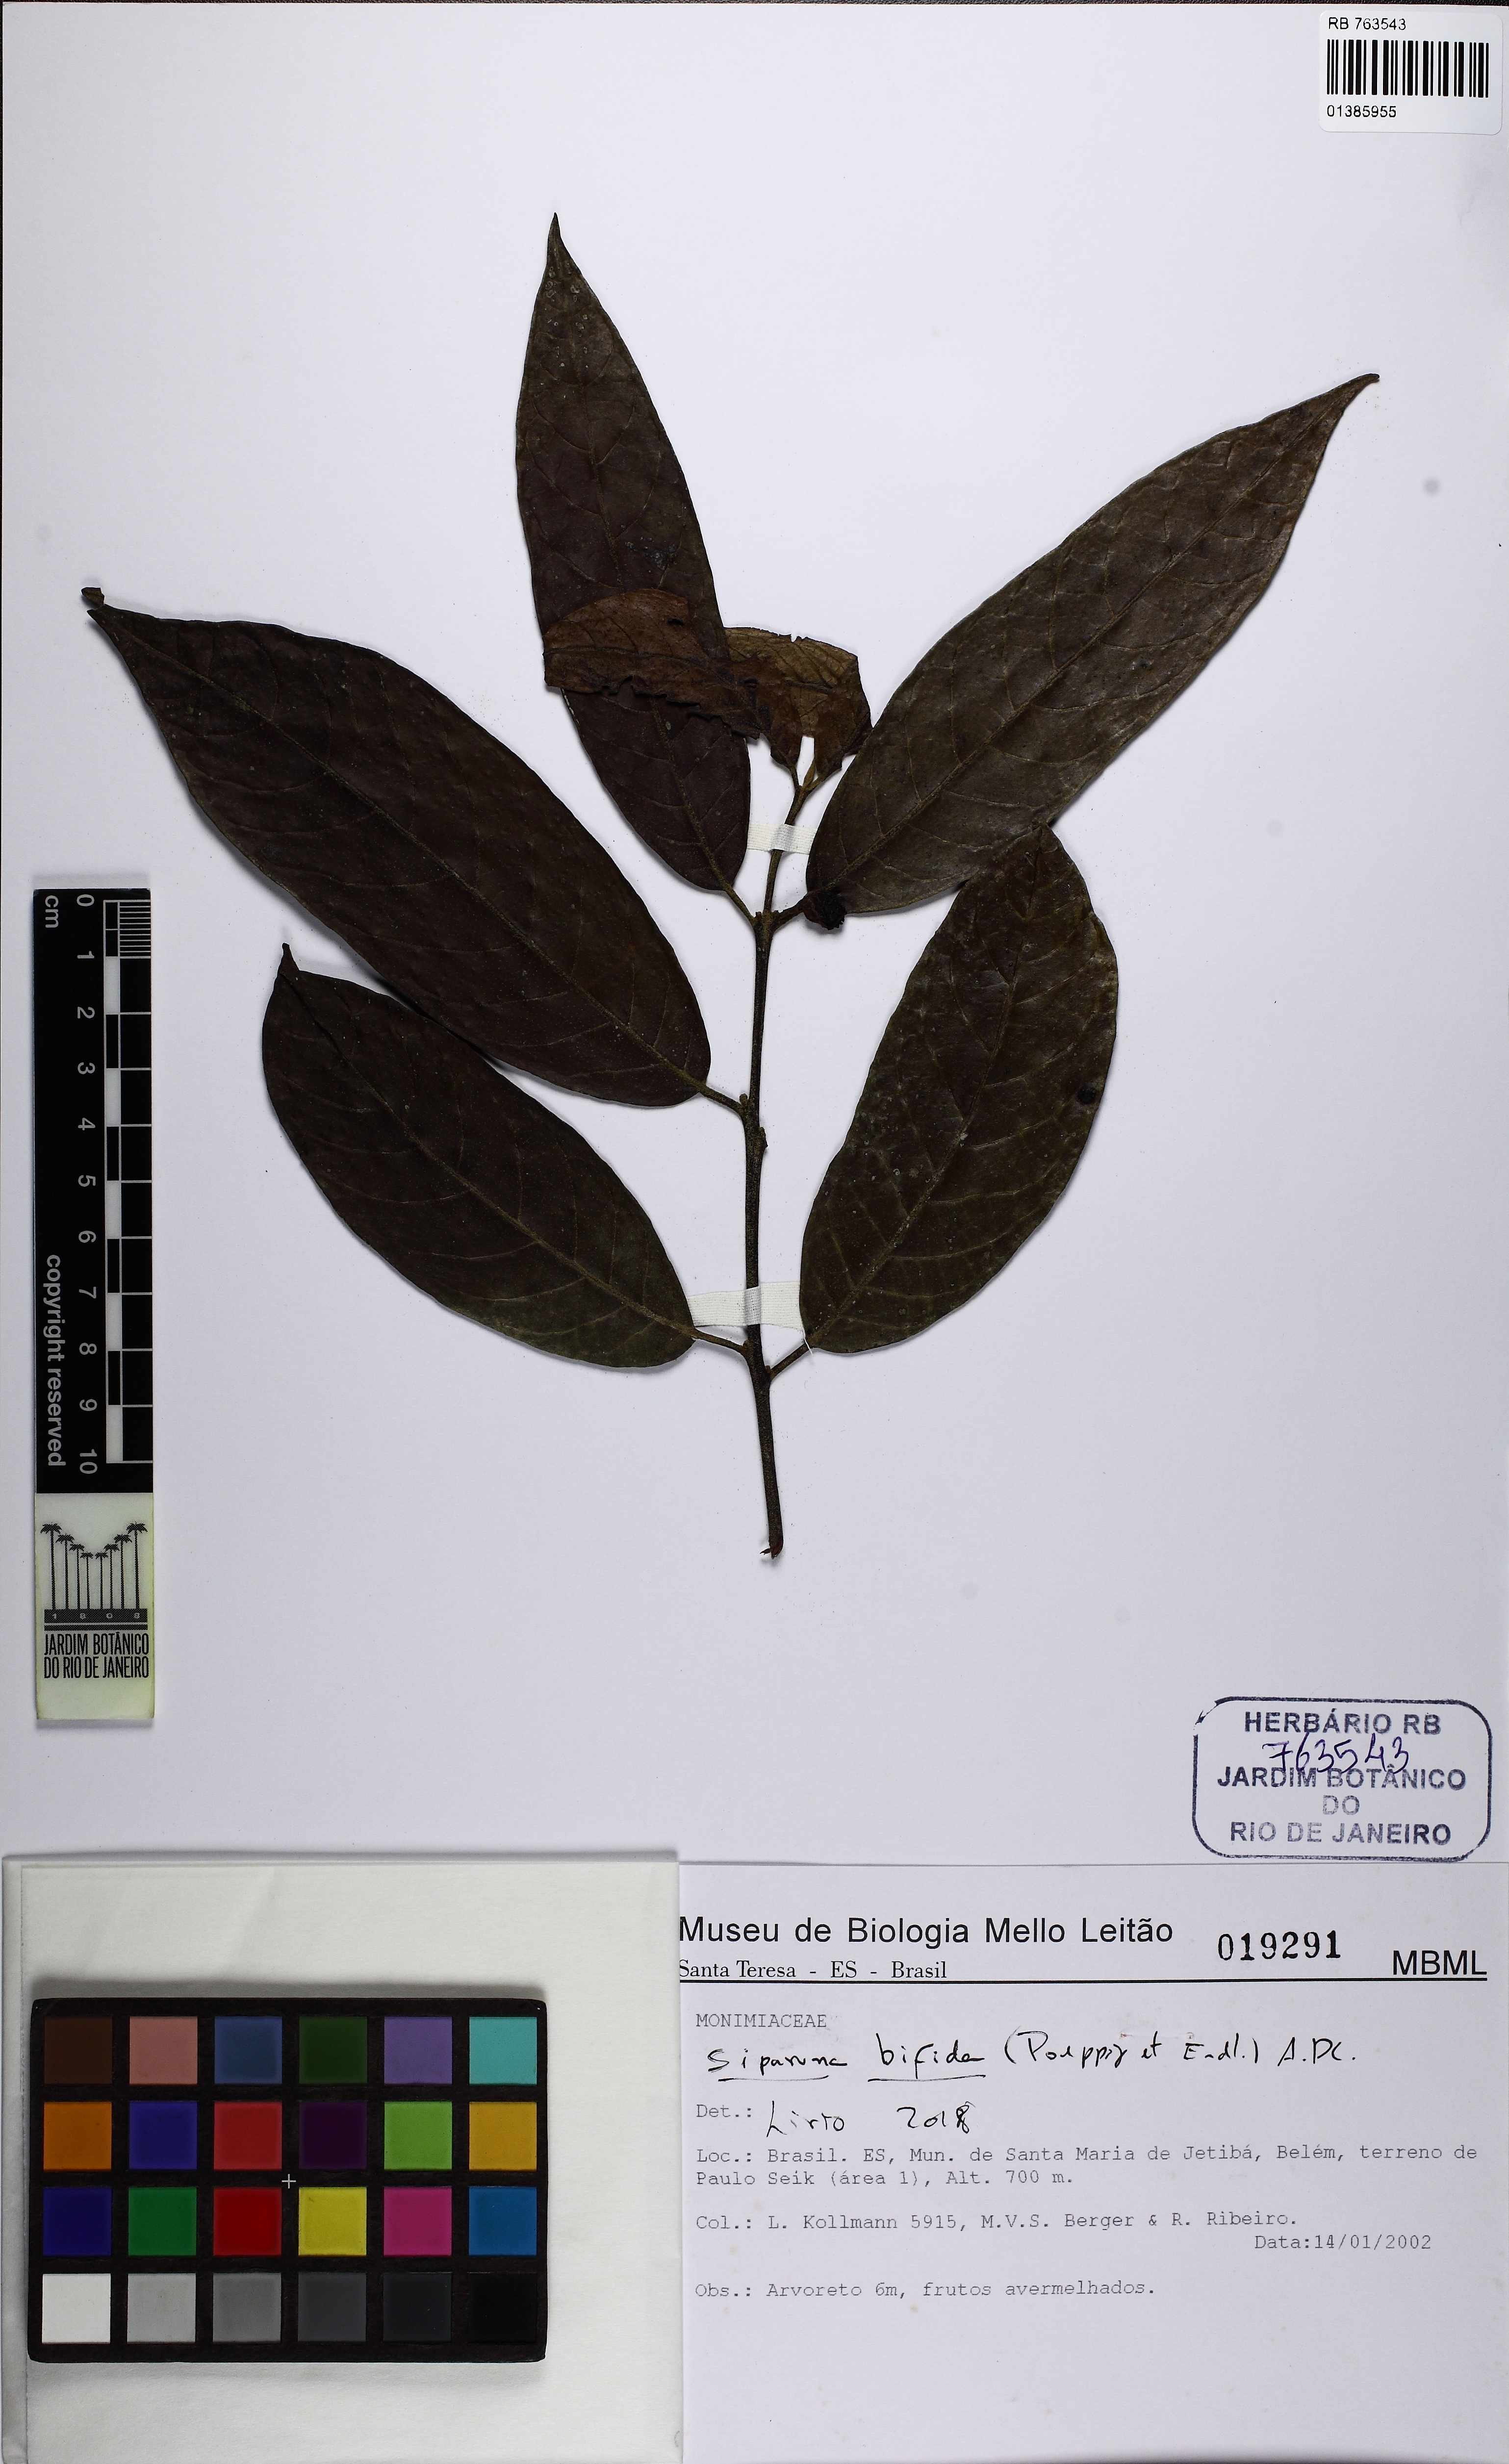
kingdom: Plantae
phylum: Tracheophyta
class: Magnoliopsida
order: Laurales
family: Siparunaceae
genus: Siparuna
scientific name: Siparuna bifida
